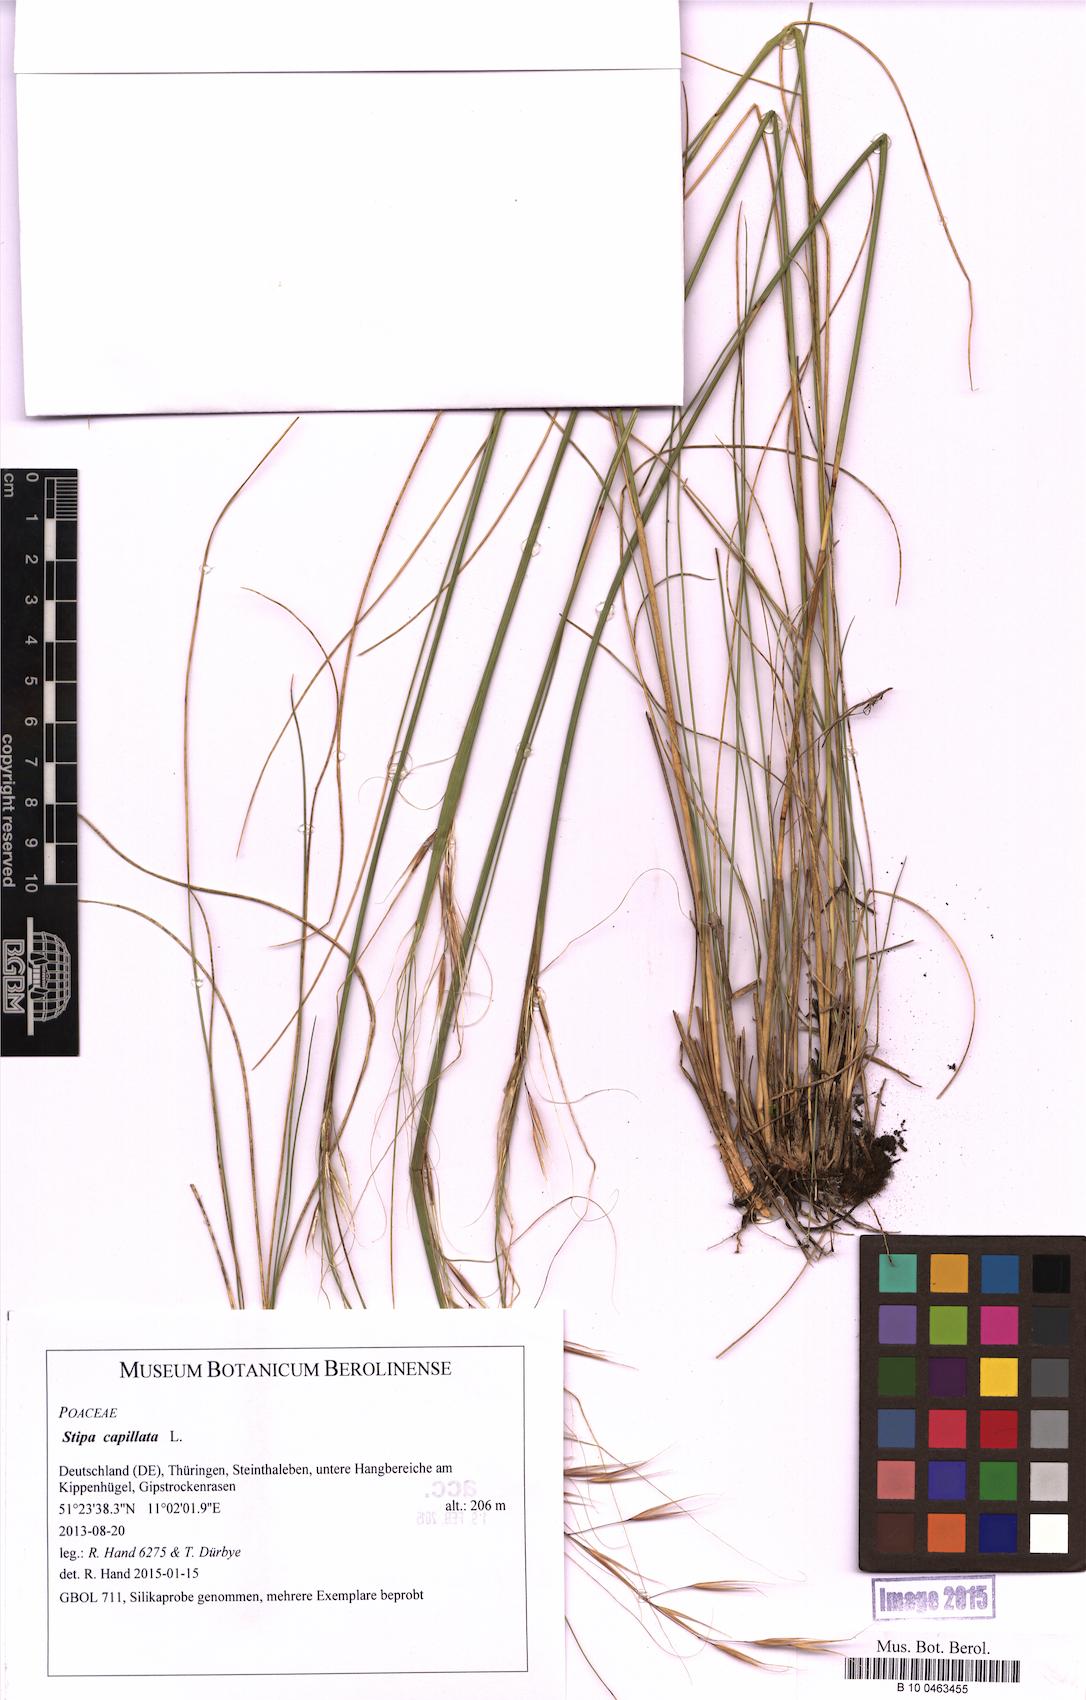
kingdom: Plantae
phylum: Tracheophyta
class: Liliopsida
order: Poales
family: Poaceae
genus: Stipa
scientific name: Stipa capillata
